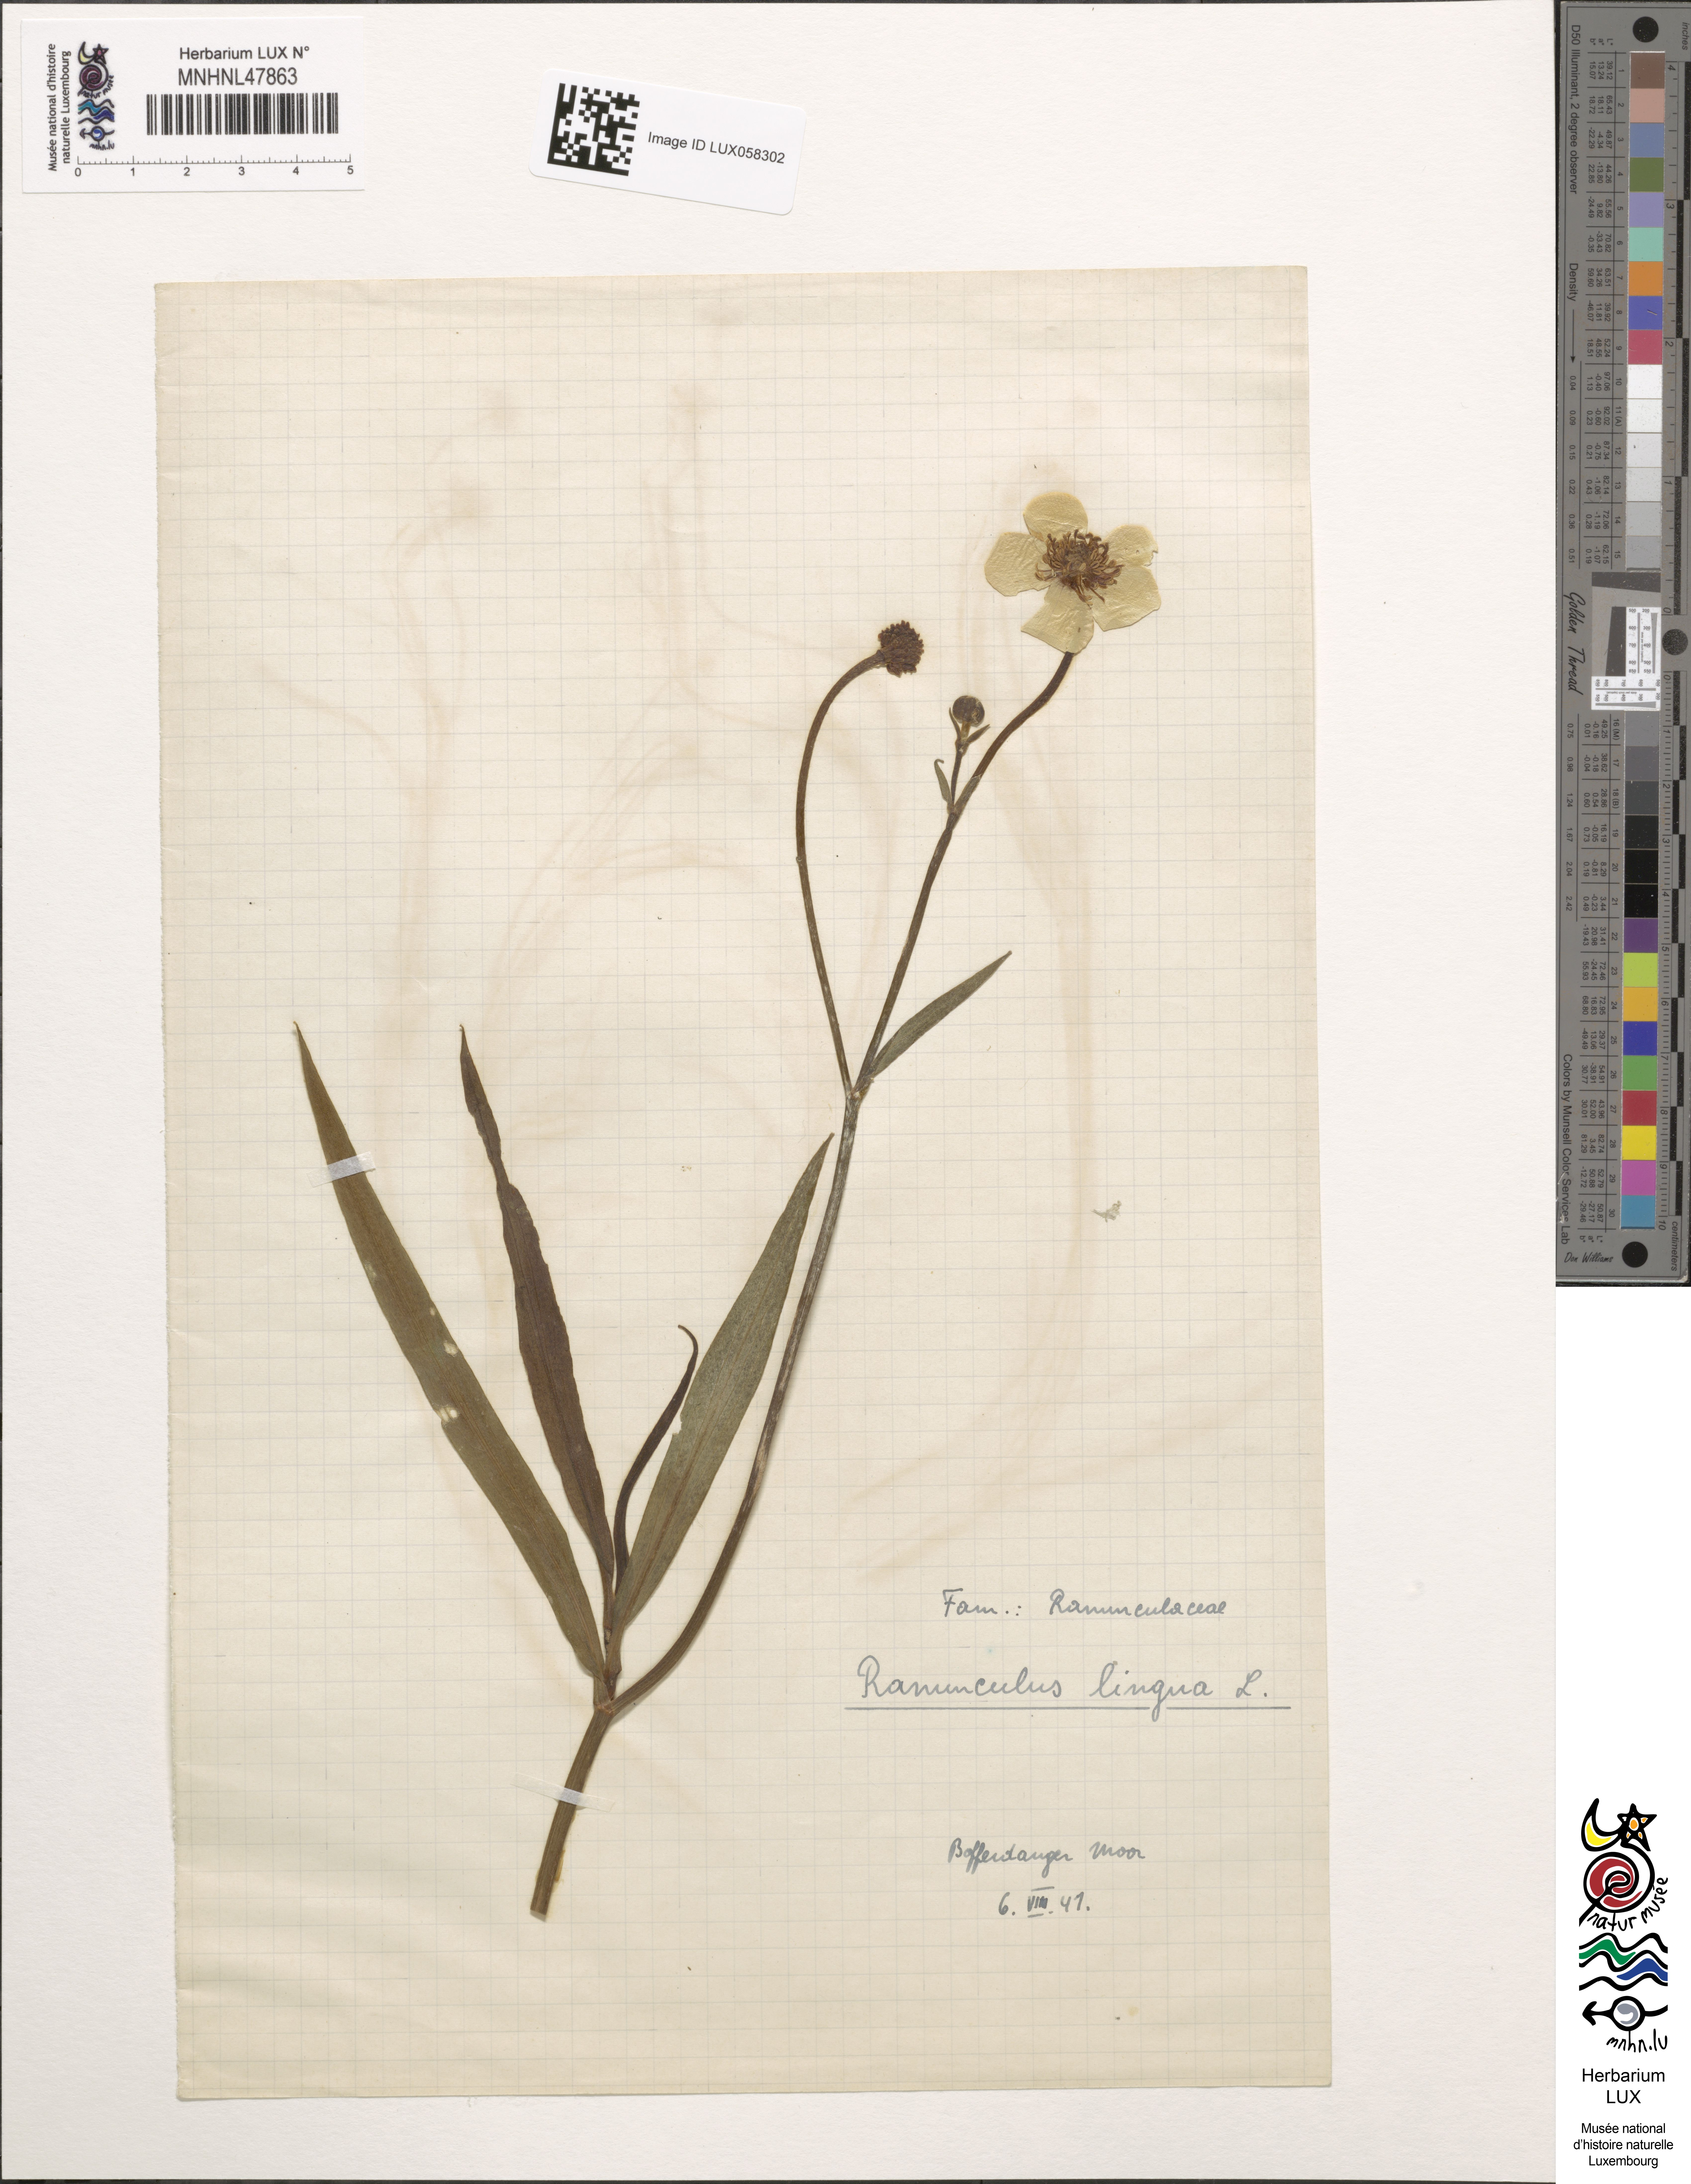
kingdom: Plantae
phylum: Tracheophyta
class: Magnoliopsida
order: Ranunculales
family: Ranunculaceae
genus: Ranunculus
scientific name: Ranunculus lingua
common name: Greater spearwort
